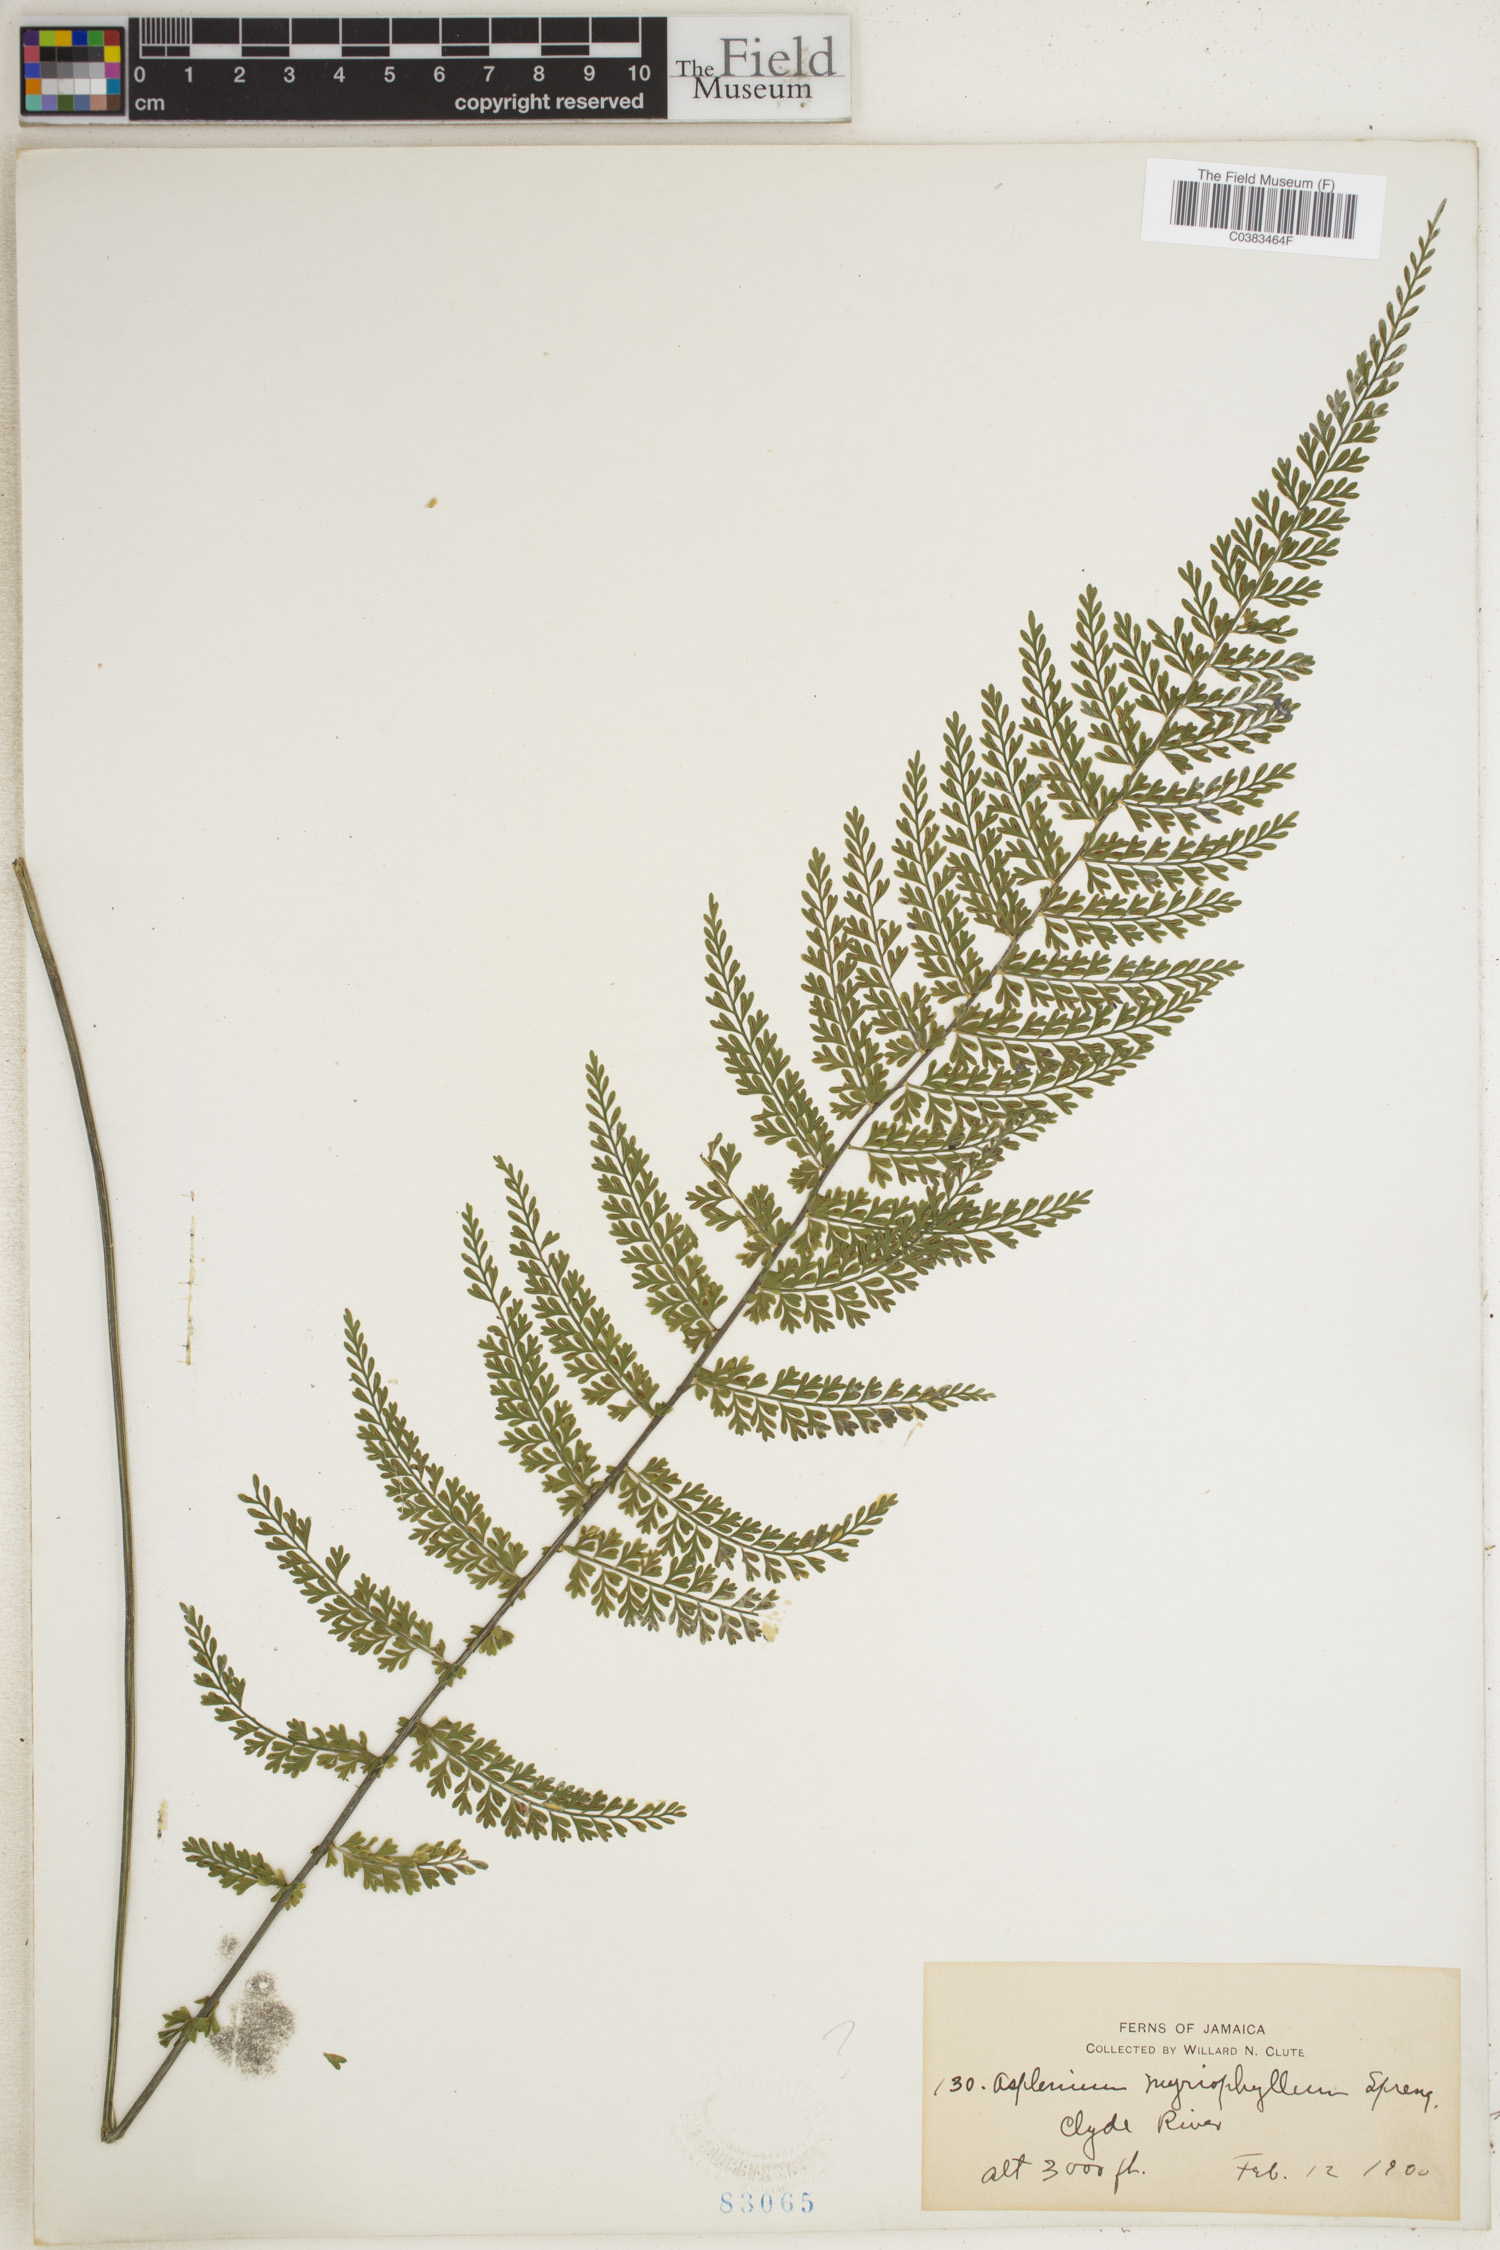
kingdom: Plantae
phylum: Tracheophyta
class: Polypodiopsida
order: Polypodiales
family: Aspleniaceae
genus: Asplenium
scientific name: Asplenium myriophyllum
